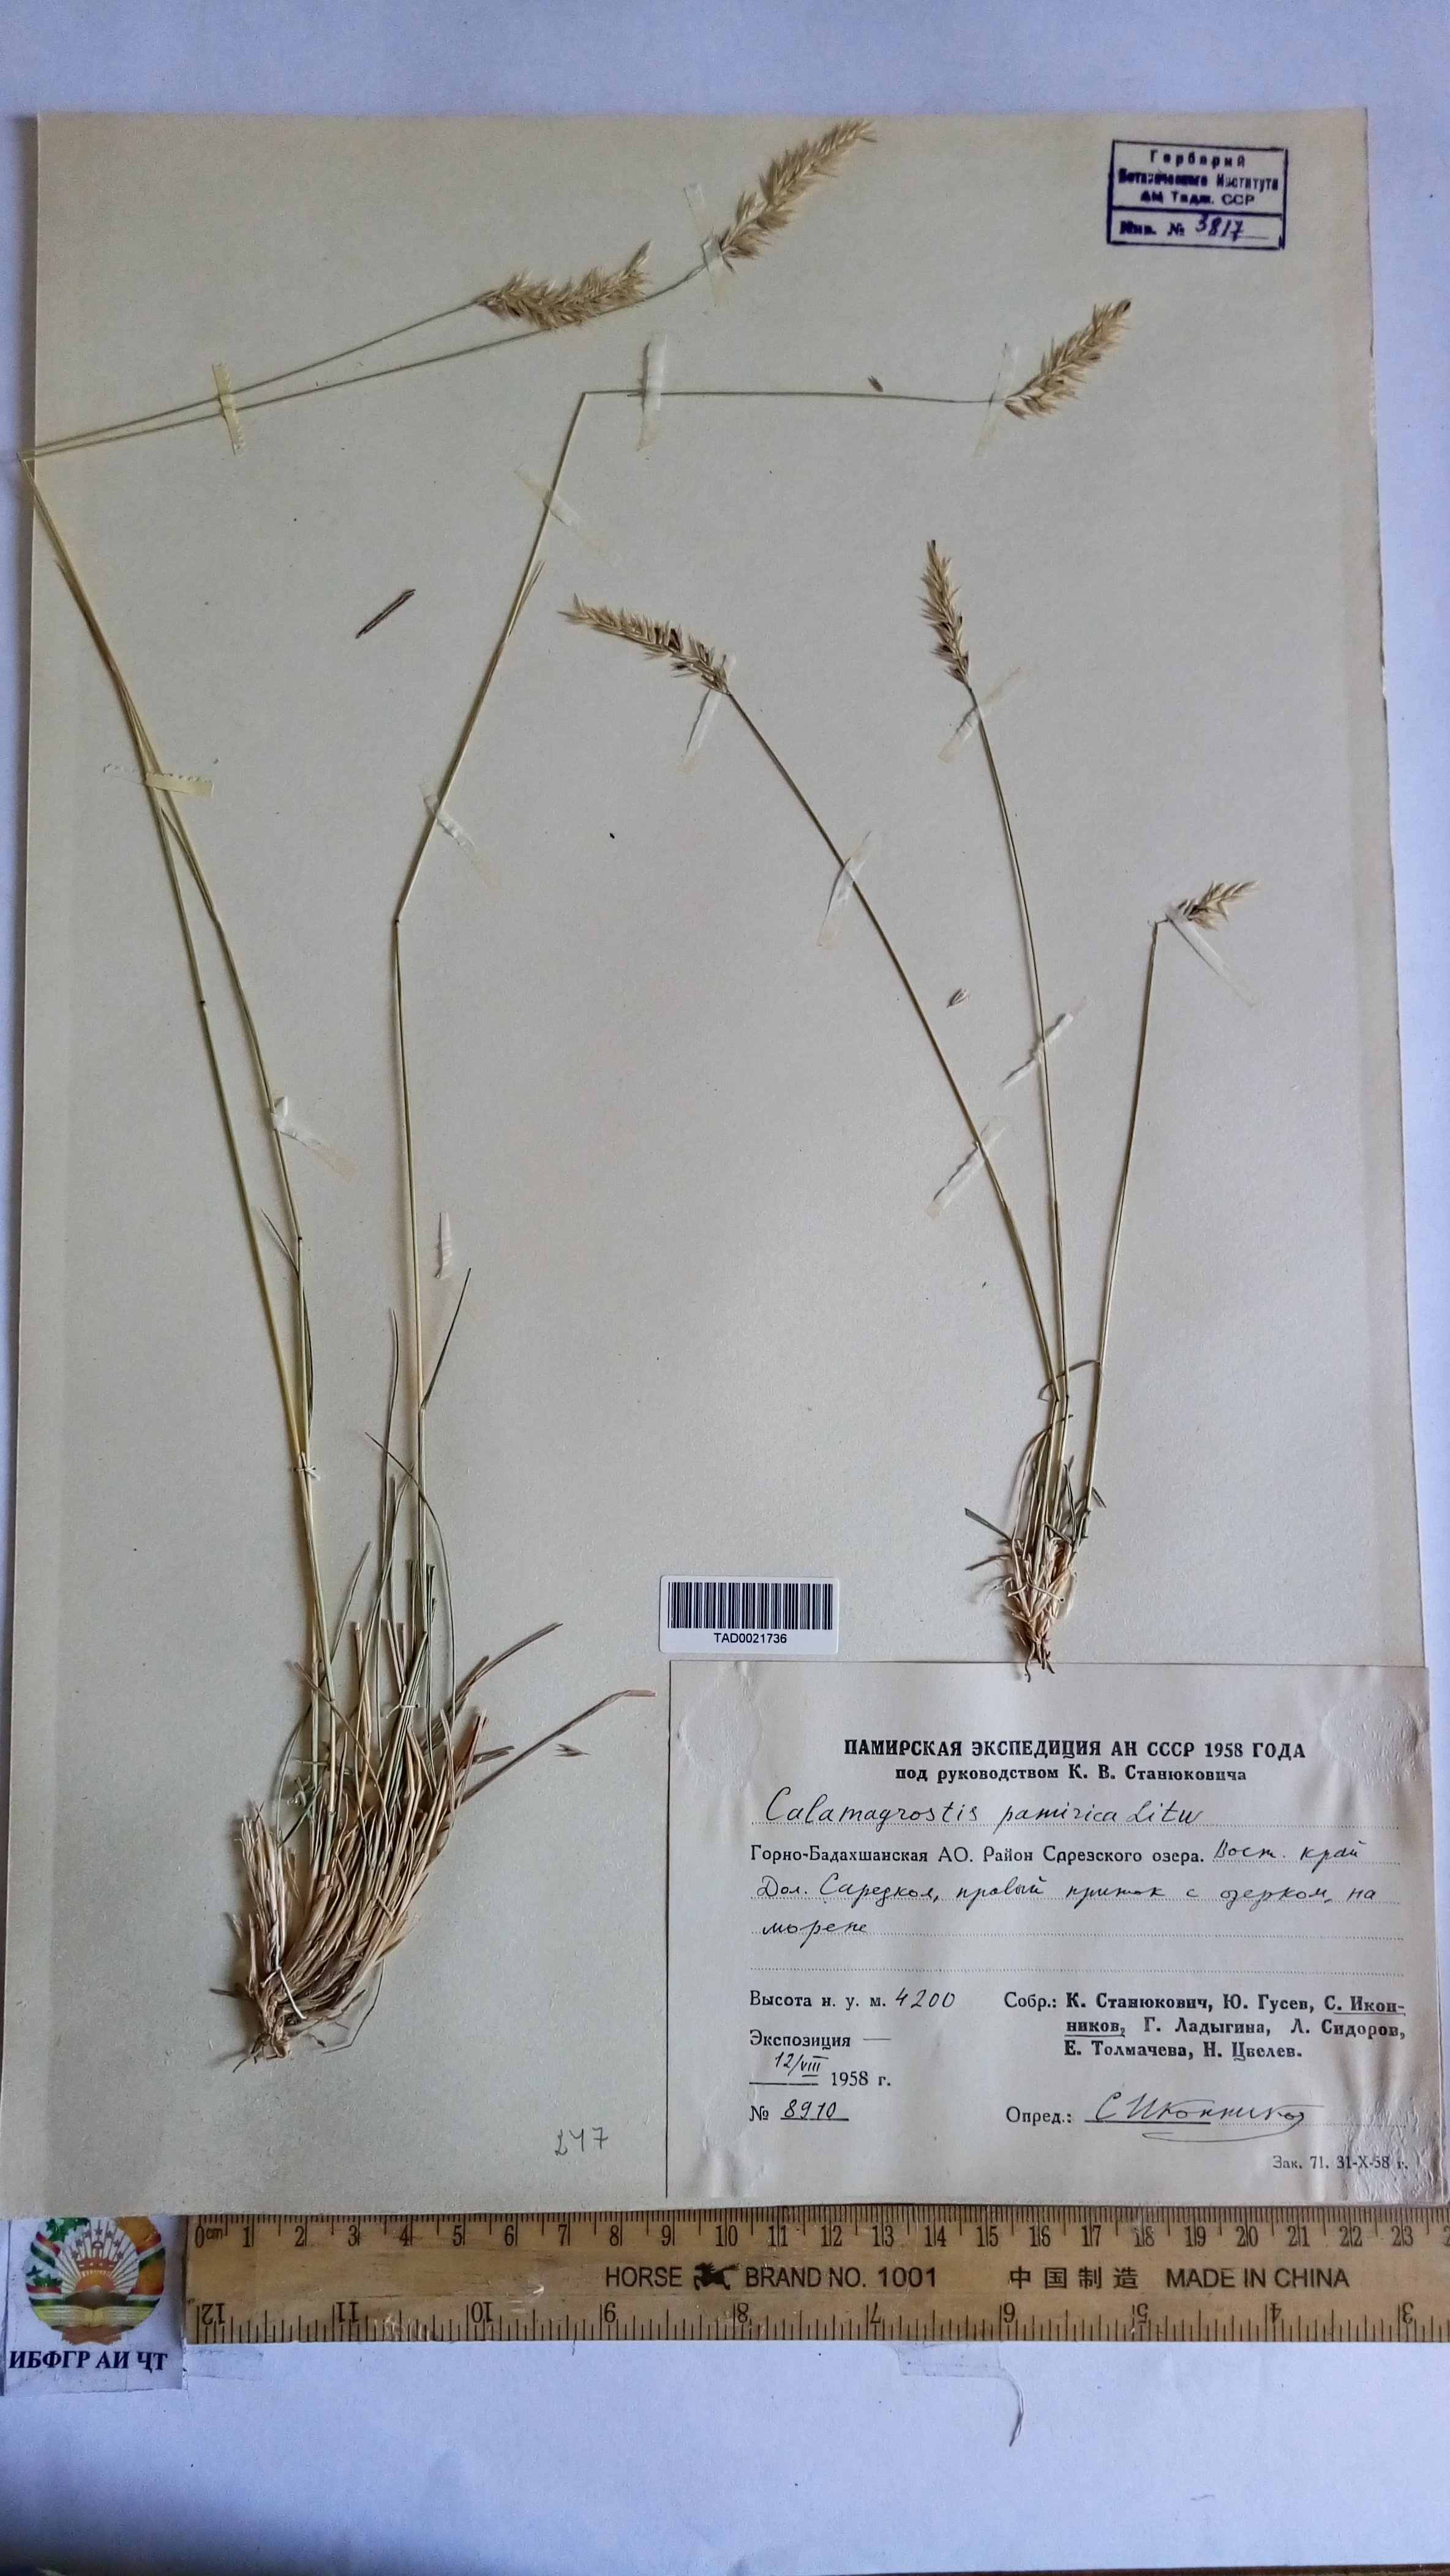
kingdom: Plantae
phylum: Tracheophyta
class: Liliopsida
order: Poales
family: Poaceae
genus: Calamagrostis
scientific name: Calamagrostis holciformis
